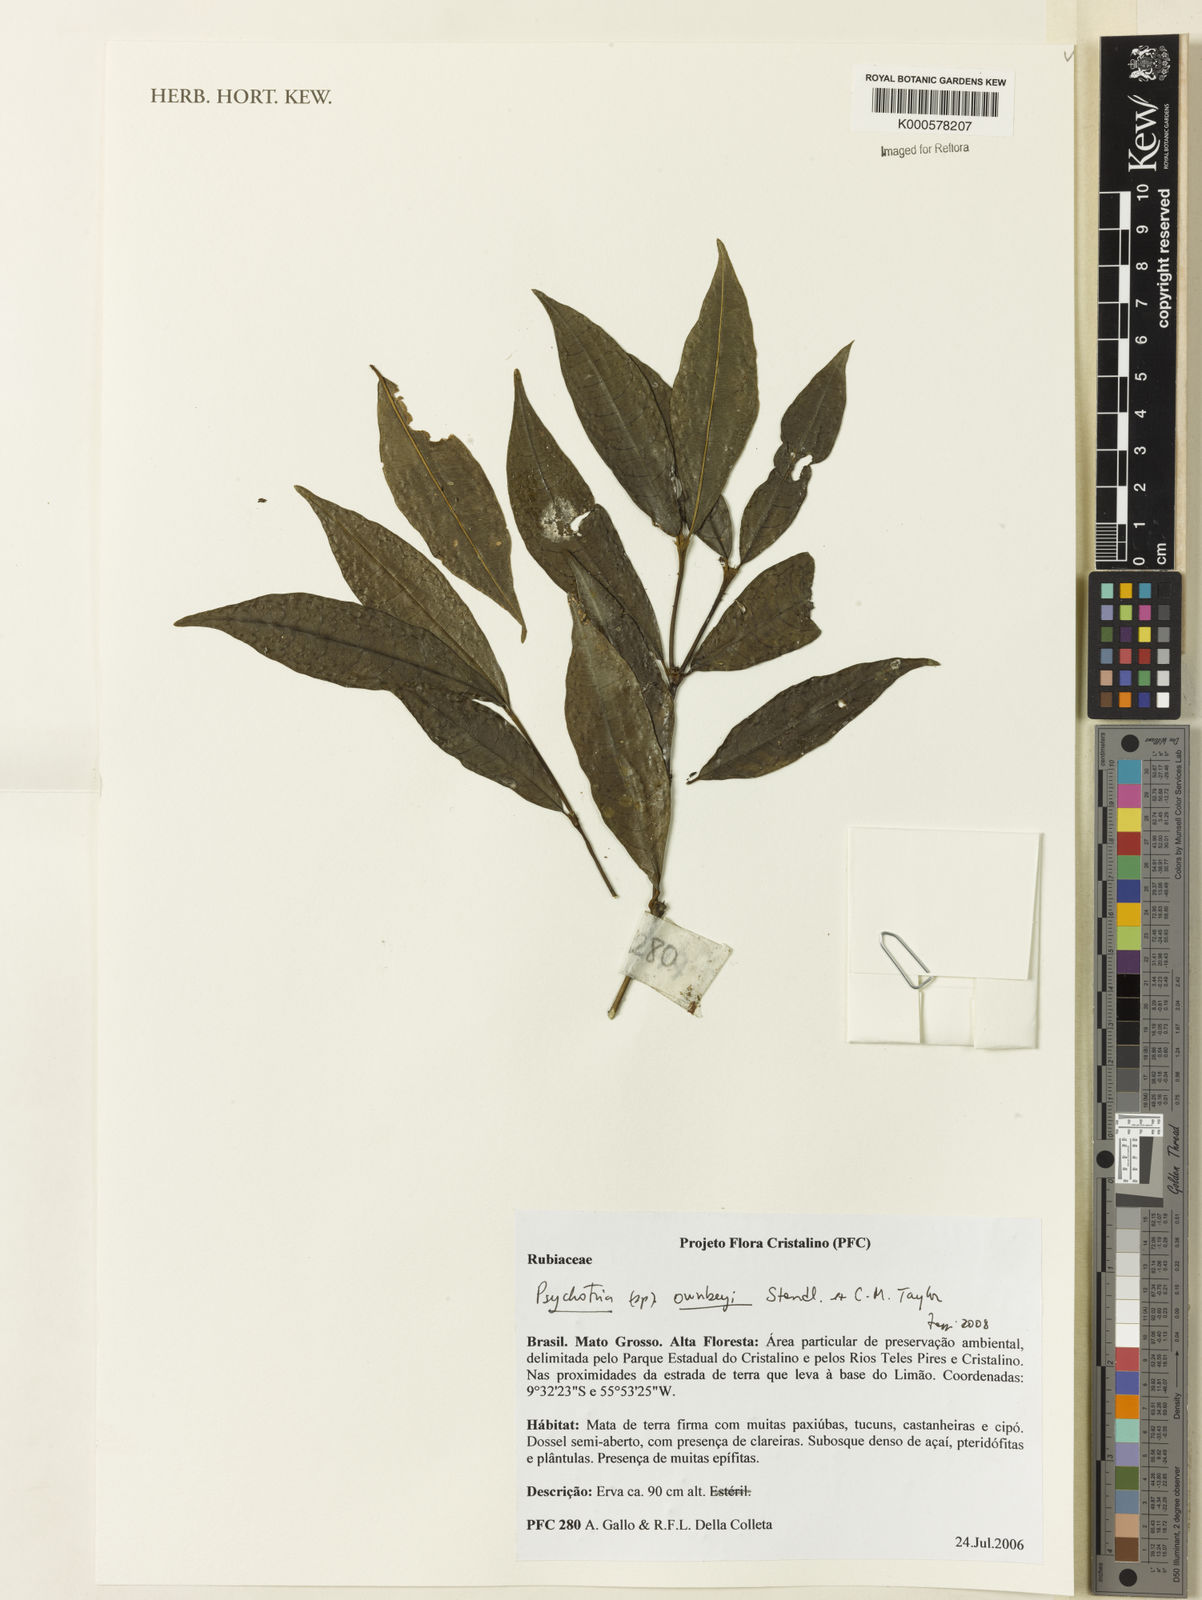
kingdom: Plantae
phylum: Tracheophyta
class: Magnoliopsida
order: Gentianales
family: Rubiaceae
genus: Palicourea
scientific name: Palicourea ownbeyi
